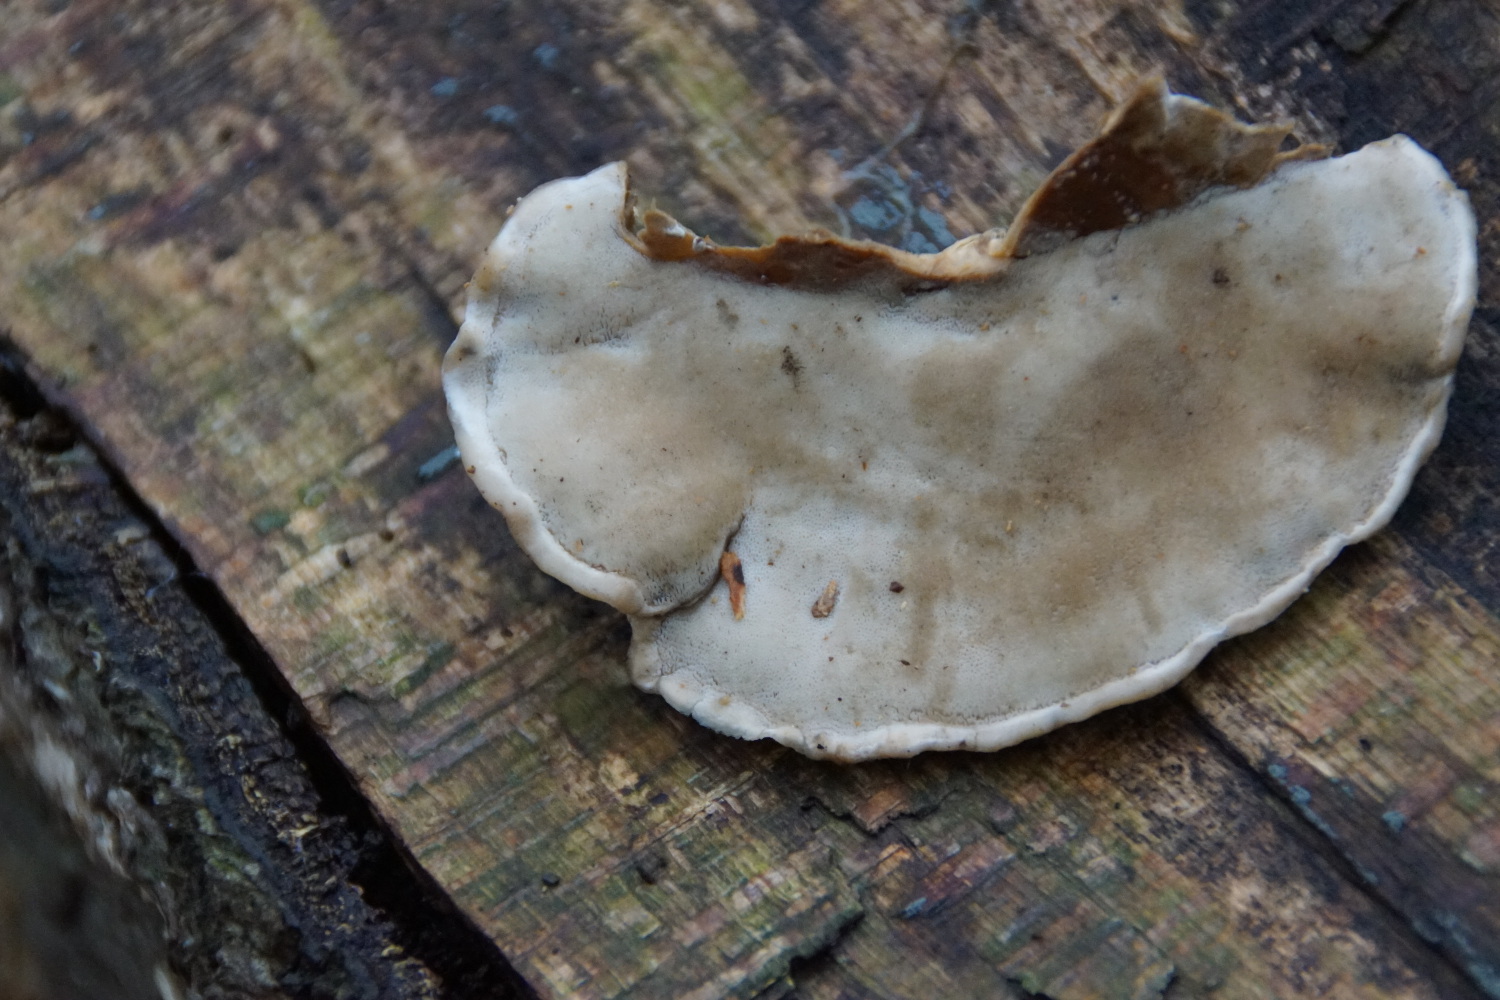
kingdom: Fungi
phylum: Basidiomycota
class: Agaricomycetes
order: Polyporales
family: Phanerochaetaceae
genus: Bjerkandera
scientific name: Bjerkandera fumosa
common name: grågul sodporesvamp
